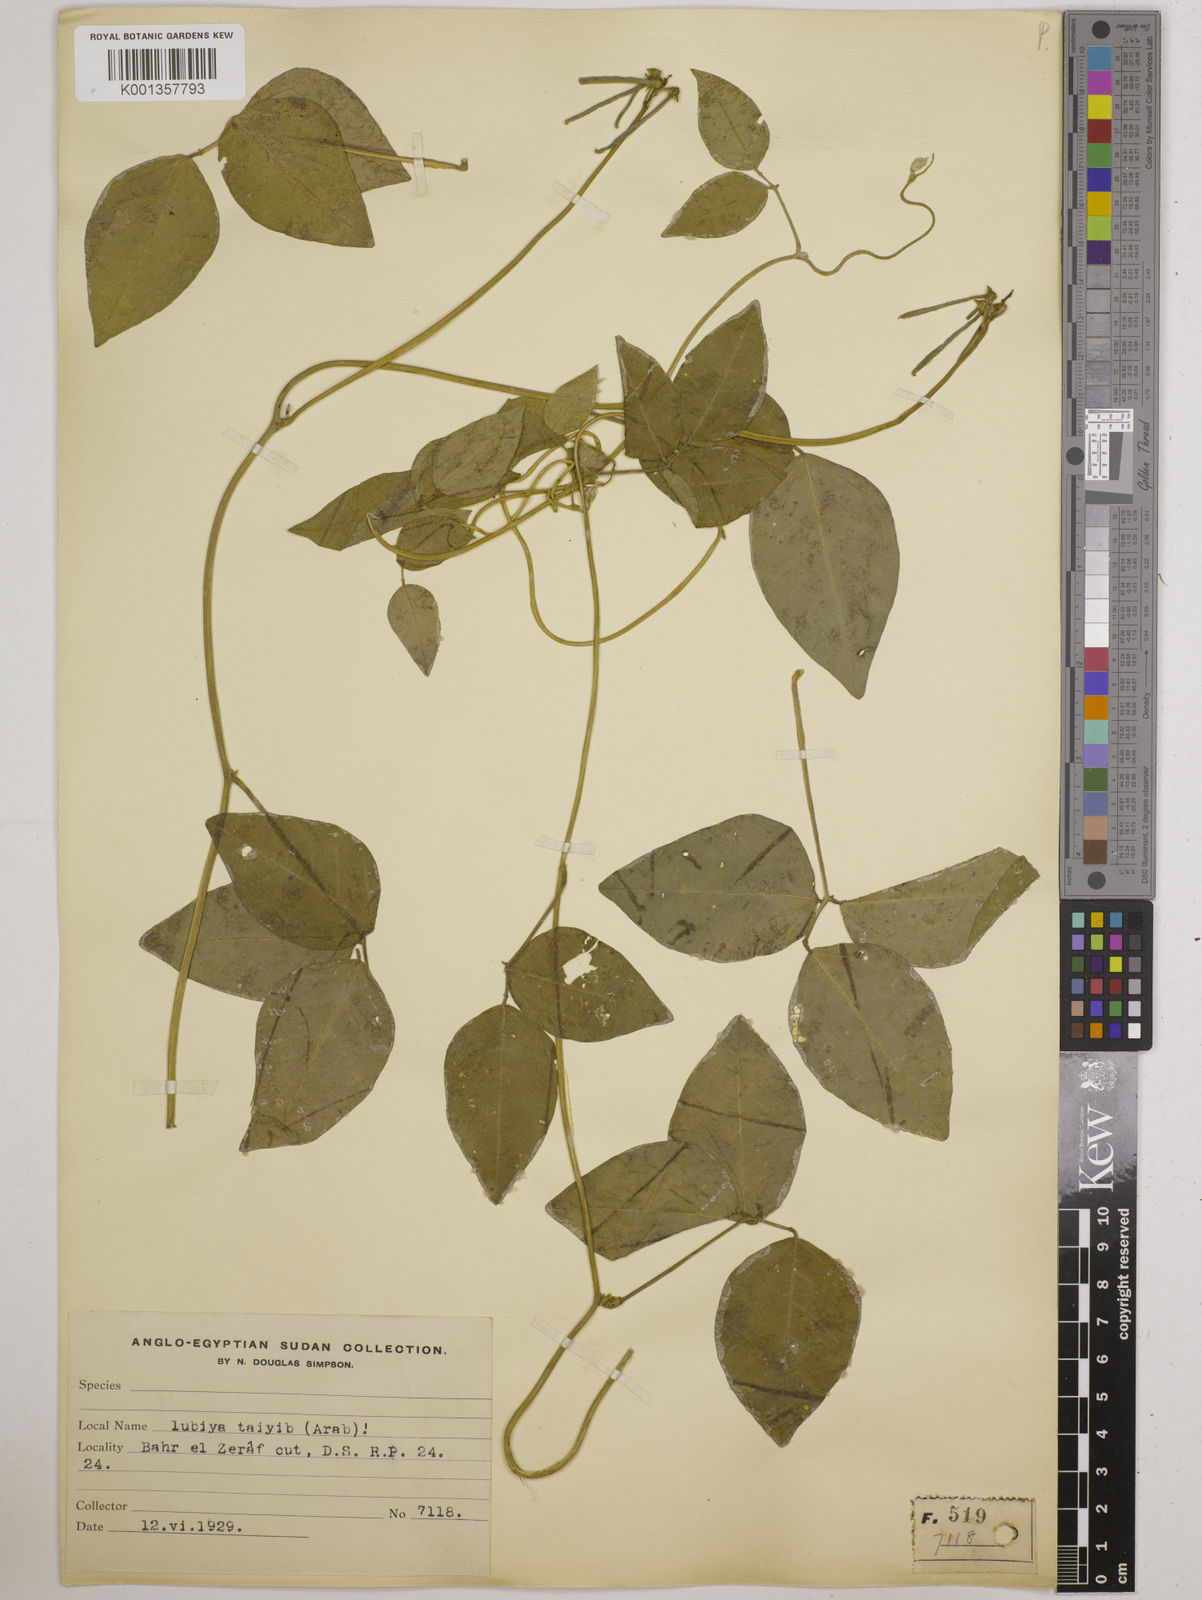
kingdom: Plantae
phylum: Tracheophyta
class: Magnoliopsida
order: Fabales
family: Fabaceae
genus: Vigna
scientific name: Vigna luteola
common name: Hairypod cowpea
